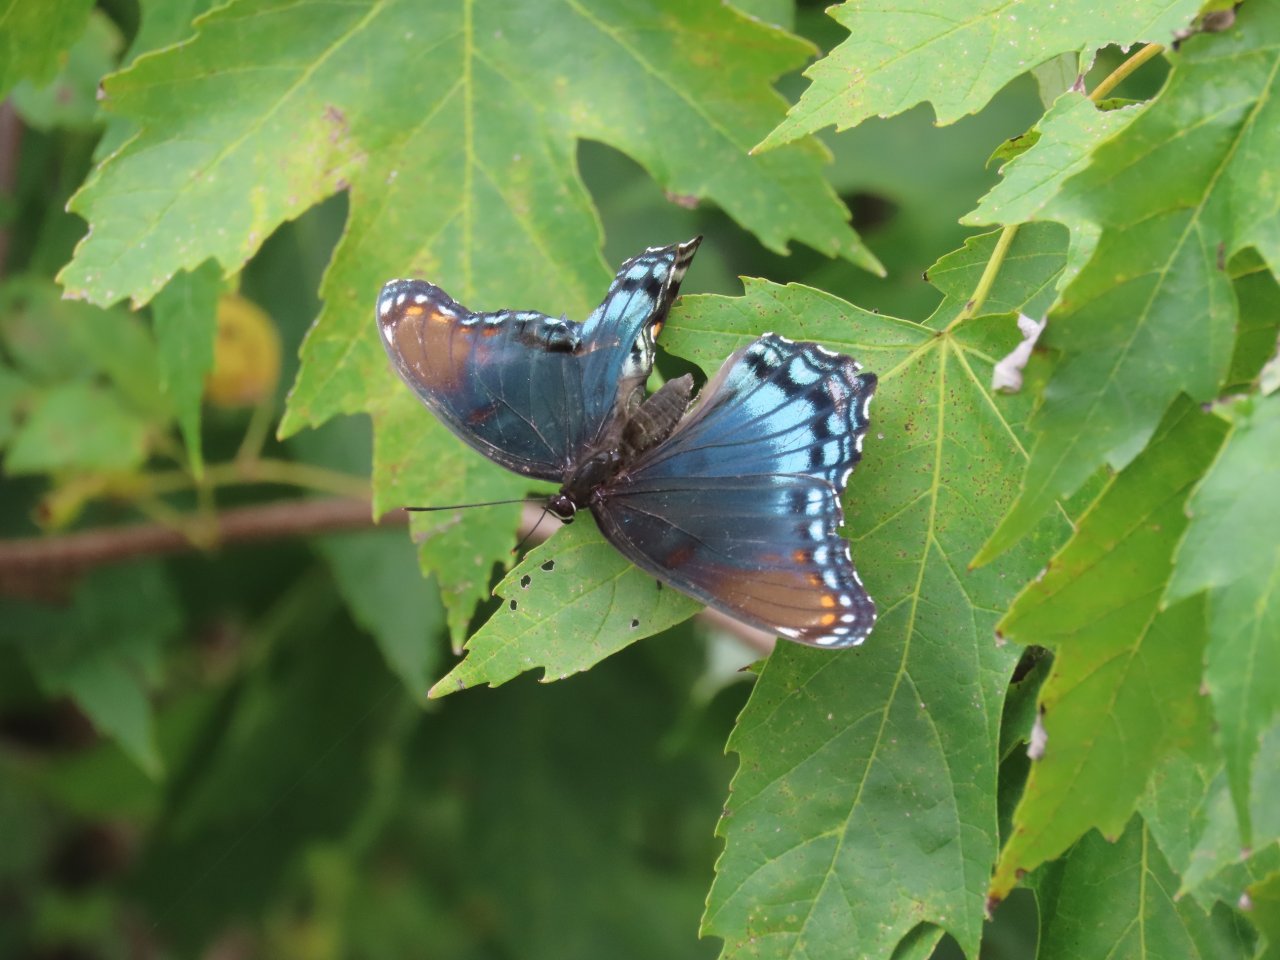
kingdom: Animalia
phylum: Arthropoda
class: Insecta
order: Lepidoptera
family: Nymphalidae
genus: Limenitis
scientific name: Limenitis astyanax
